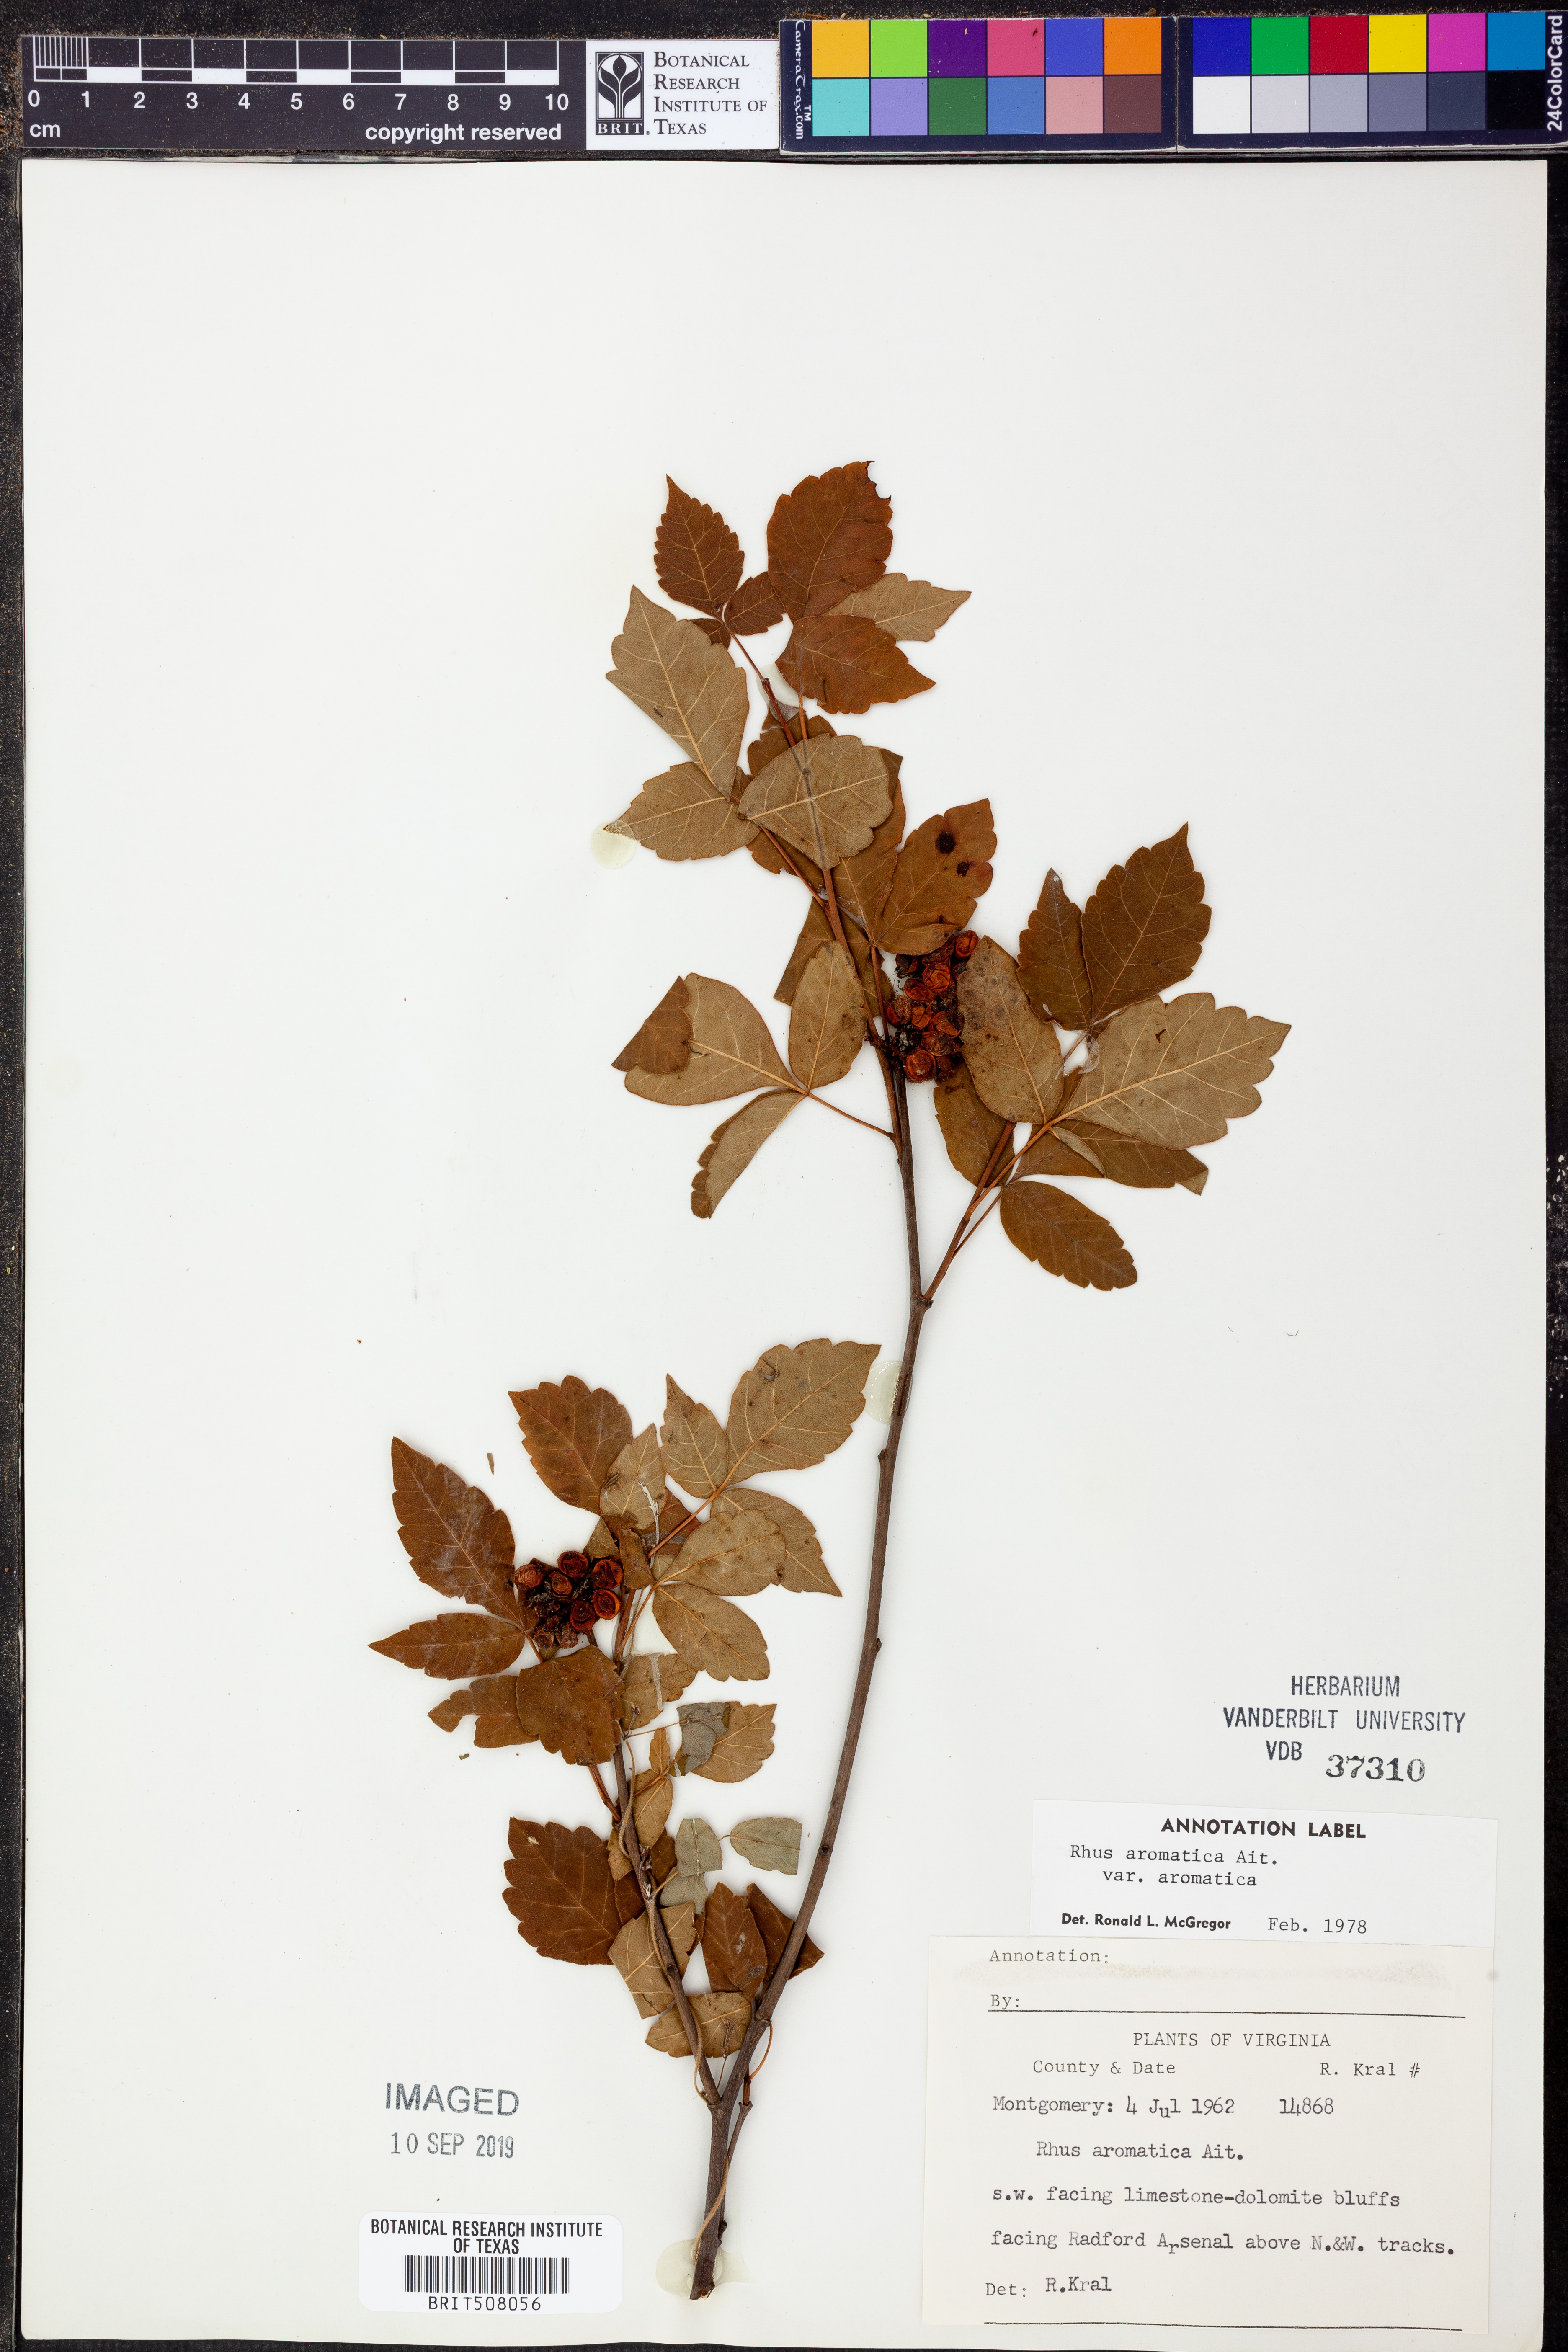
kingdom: Plantae
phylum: Tracheophyta
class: Magnoliopsida
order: Sapindales
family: Anacardiaceae
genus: Rhus
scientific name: Rhus aromatica
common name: Aromatic sumac
